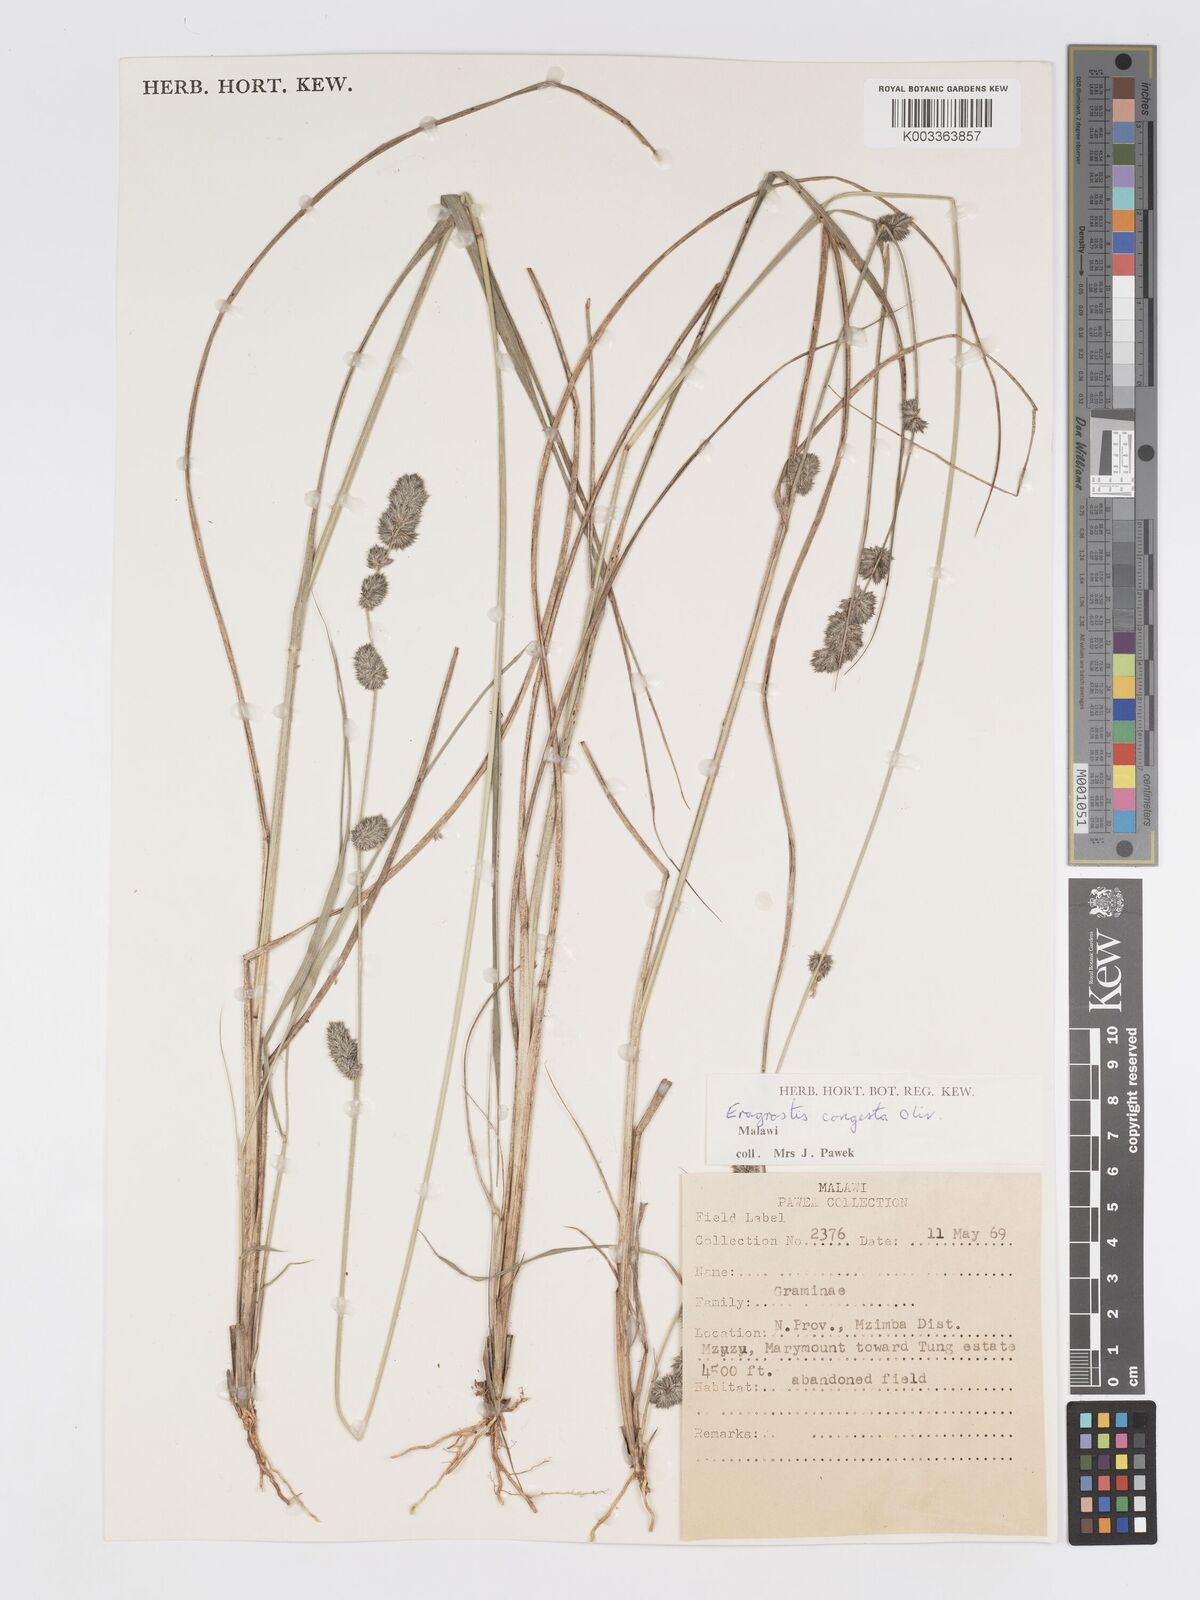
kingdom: Plantae
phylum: Tracheophyta
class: Liliopsida
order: Poales
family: Poaceae
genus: Eragrostis
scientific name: Eragrostis congesta
